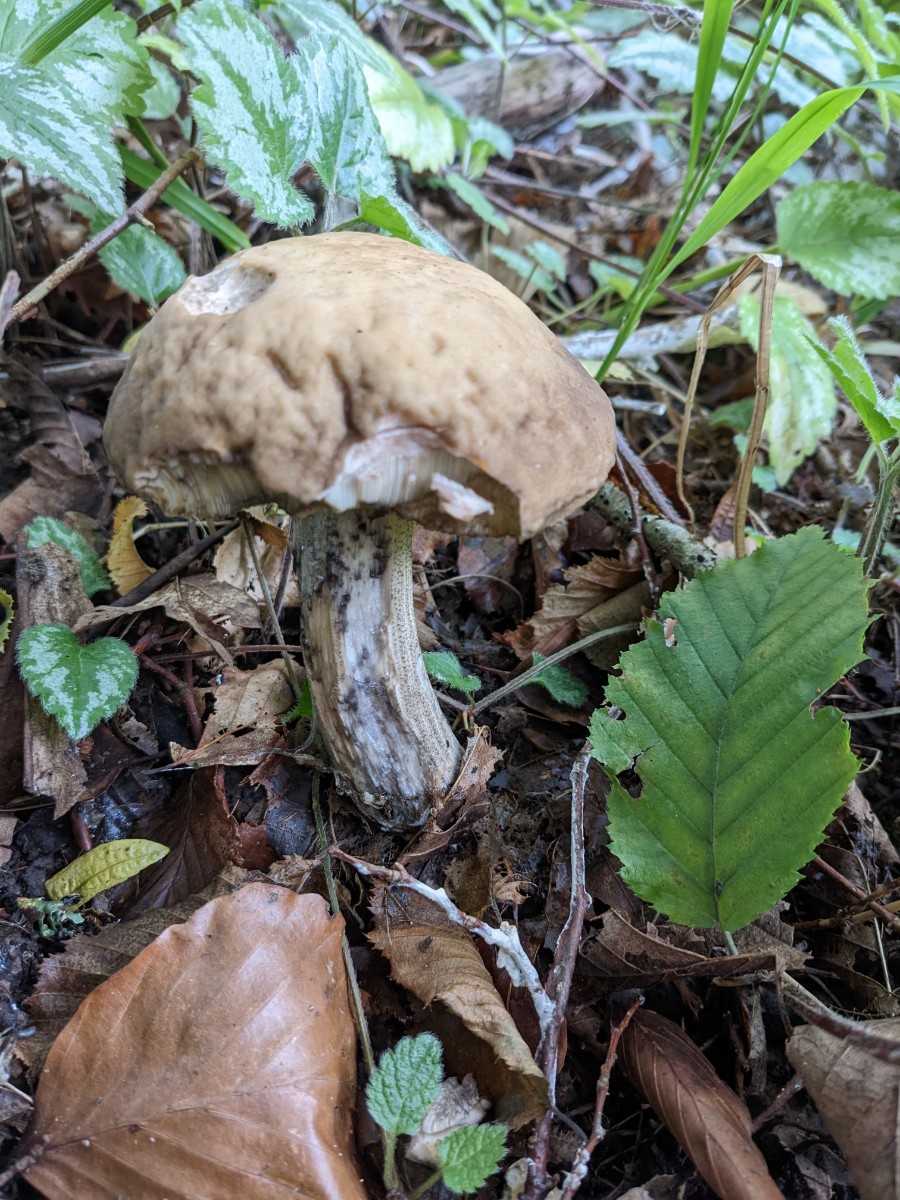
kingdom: Fungi
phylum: Basidiomycota
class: Agaricomycetes
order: Boletales
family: Boletaceae
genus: Leccinellum
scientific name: Leccinellum pseudoscabrum
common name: avnbøg-skælrørhat
